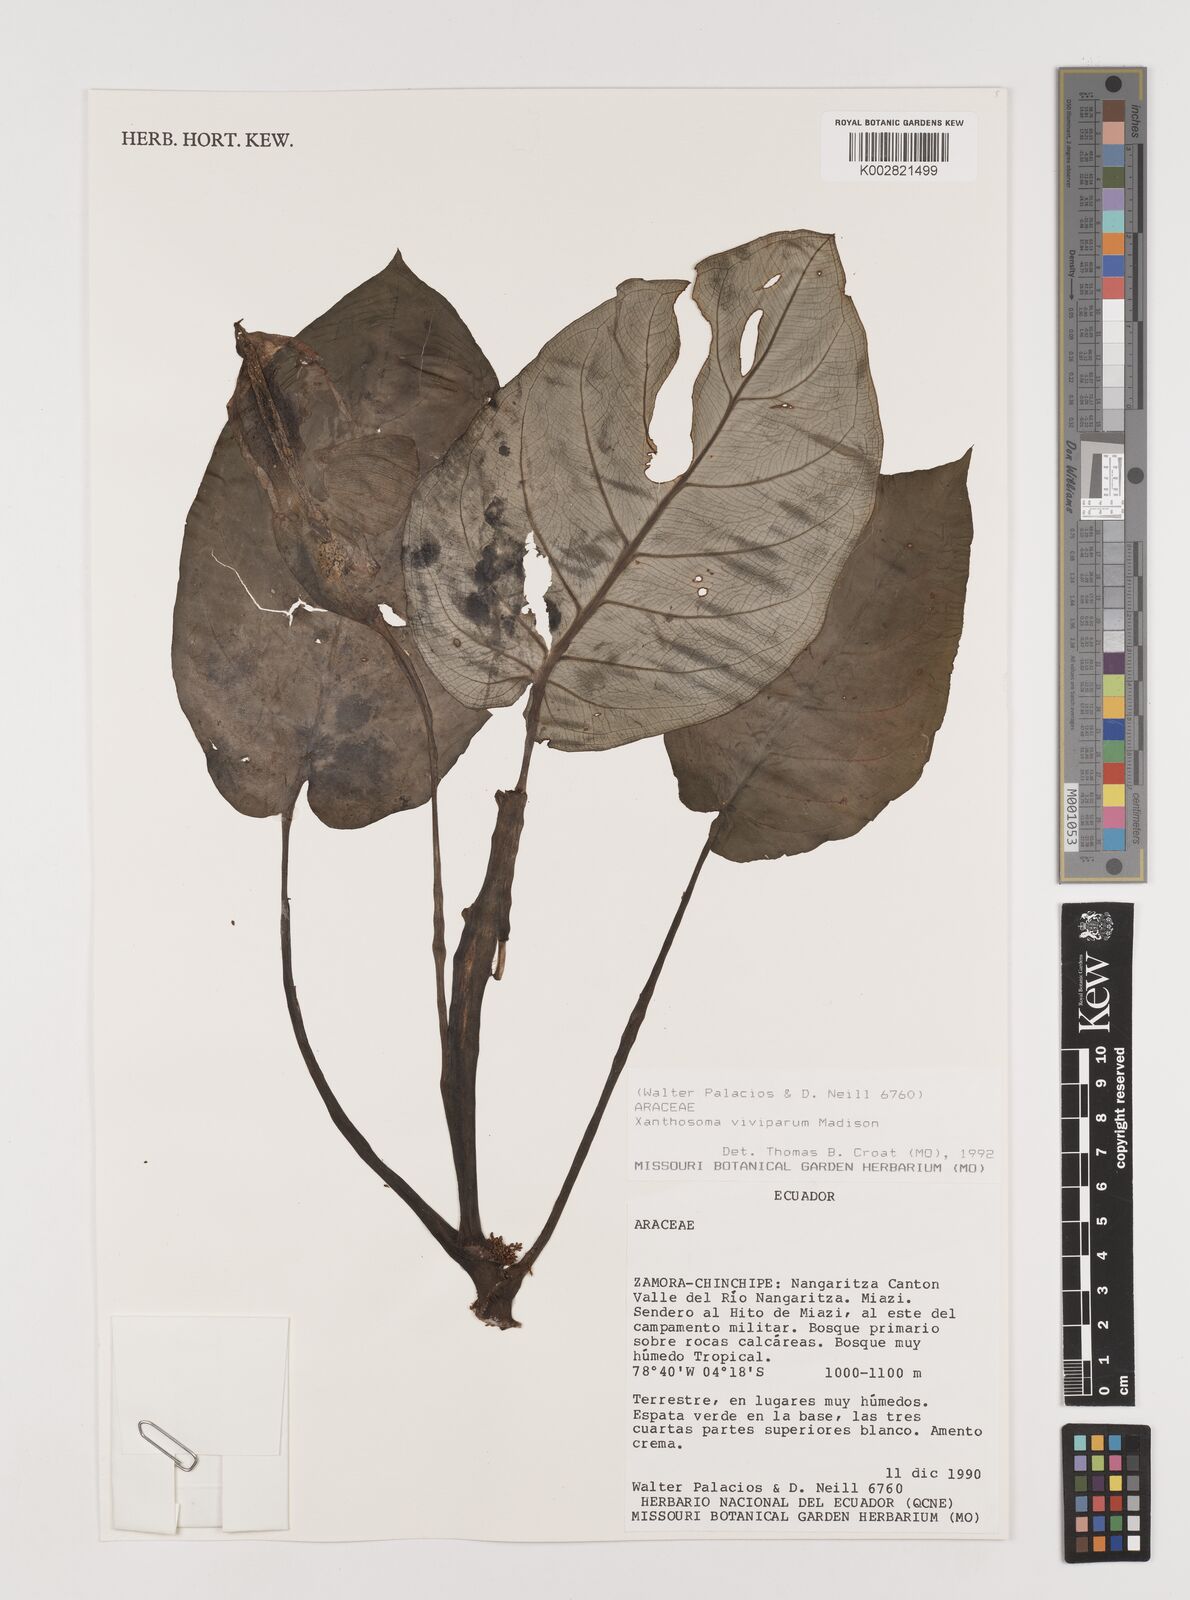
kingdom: Plantae
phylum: Tracheophyta
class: Liliopsida
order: Alismatales
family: Araceae
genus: Xanthosoma
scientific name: Xanthosoma viviparum
